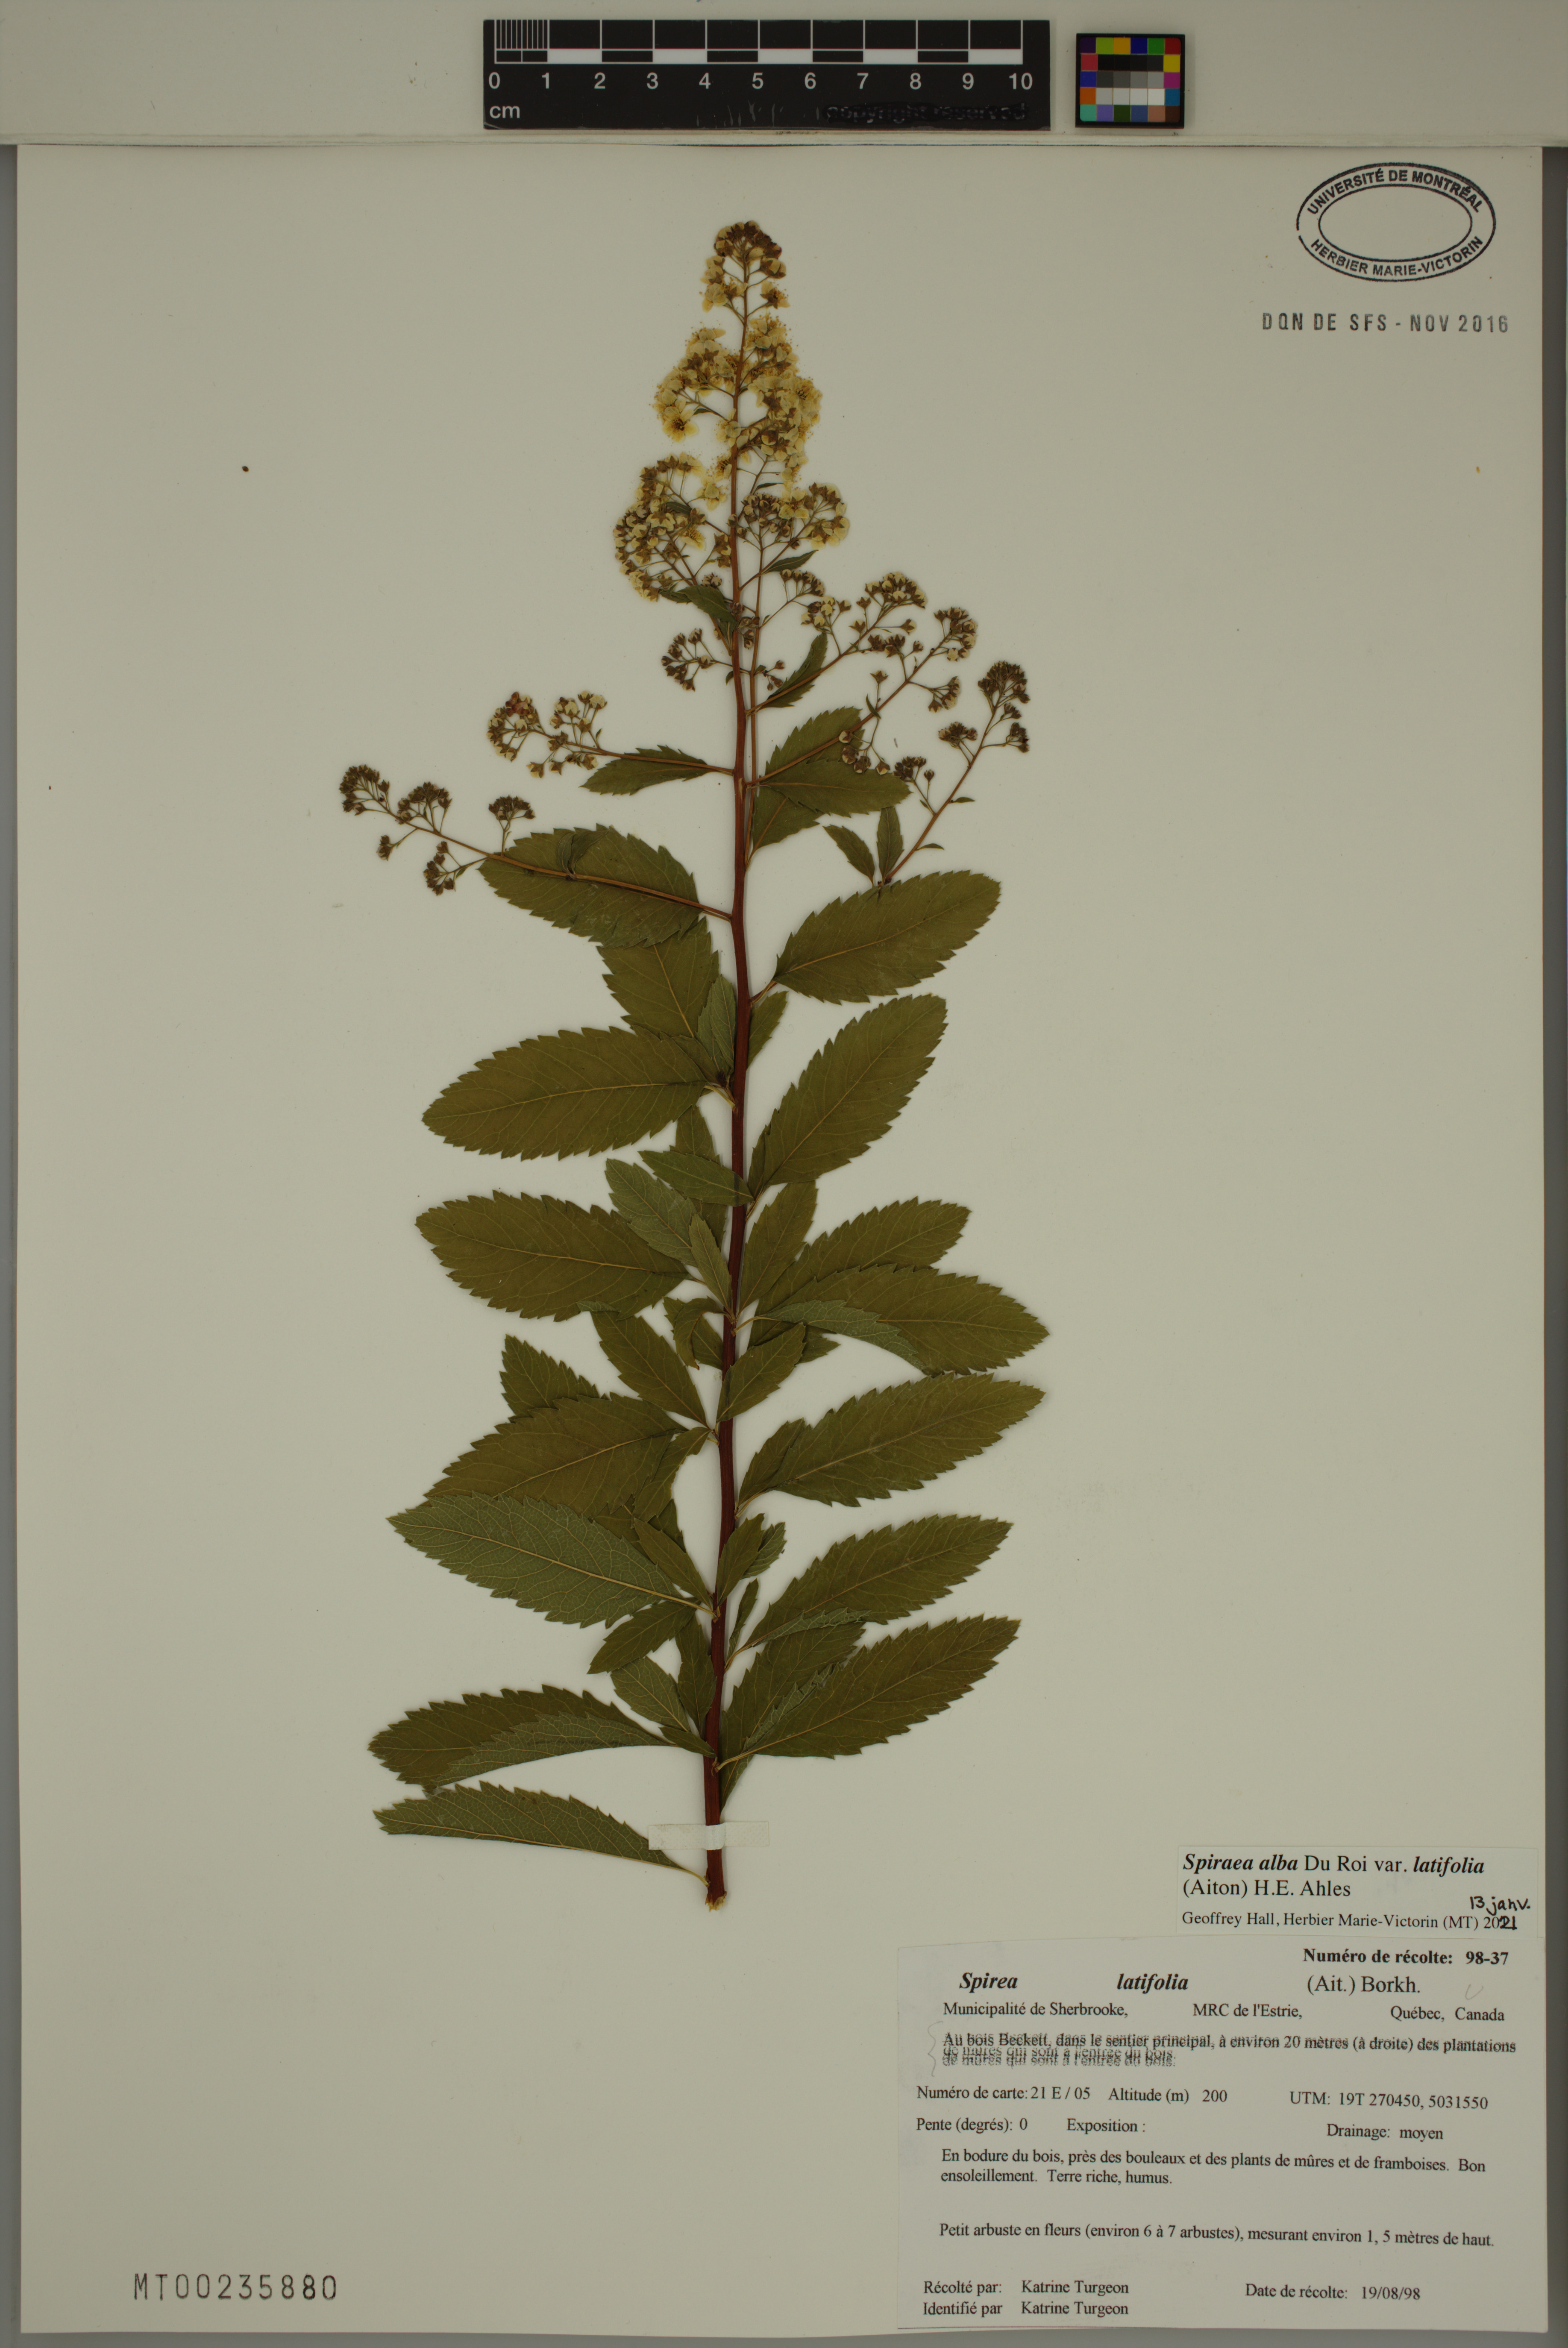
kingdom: Plantae
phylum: Tracheophyta
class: Magnoliopsida
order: Rosales
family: Rosaceae
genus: Spiraea
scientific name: Spiraea alba
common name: Pale bridewort
